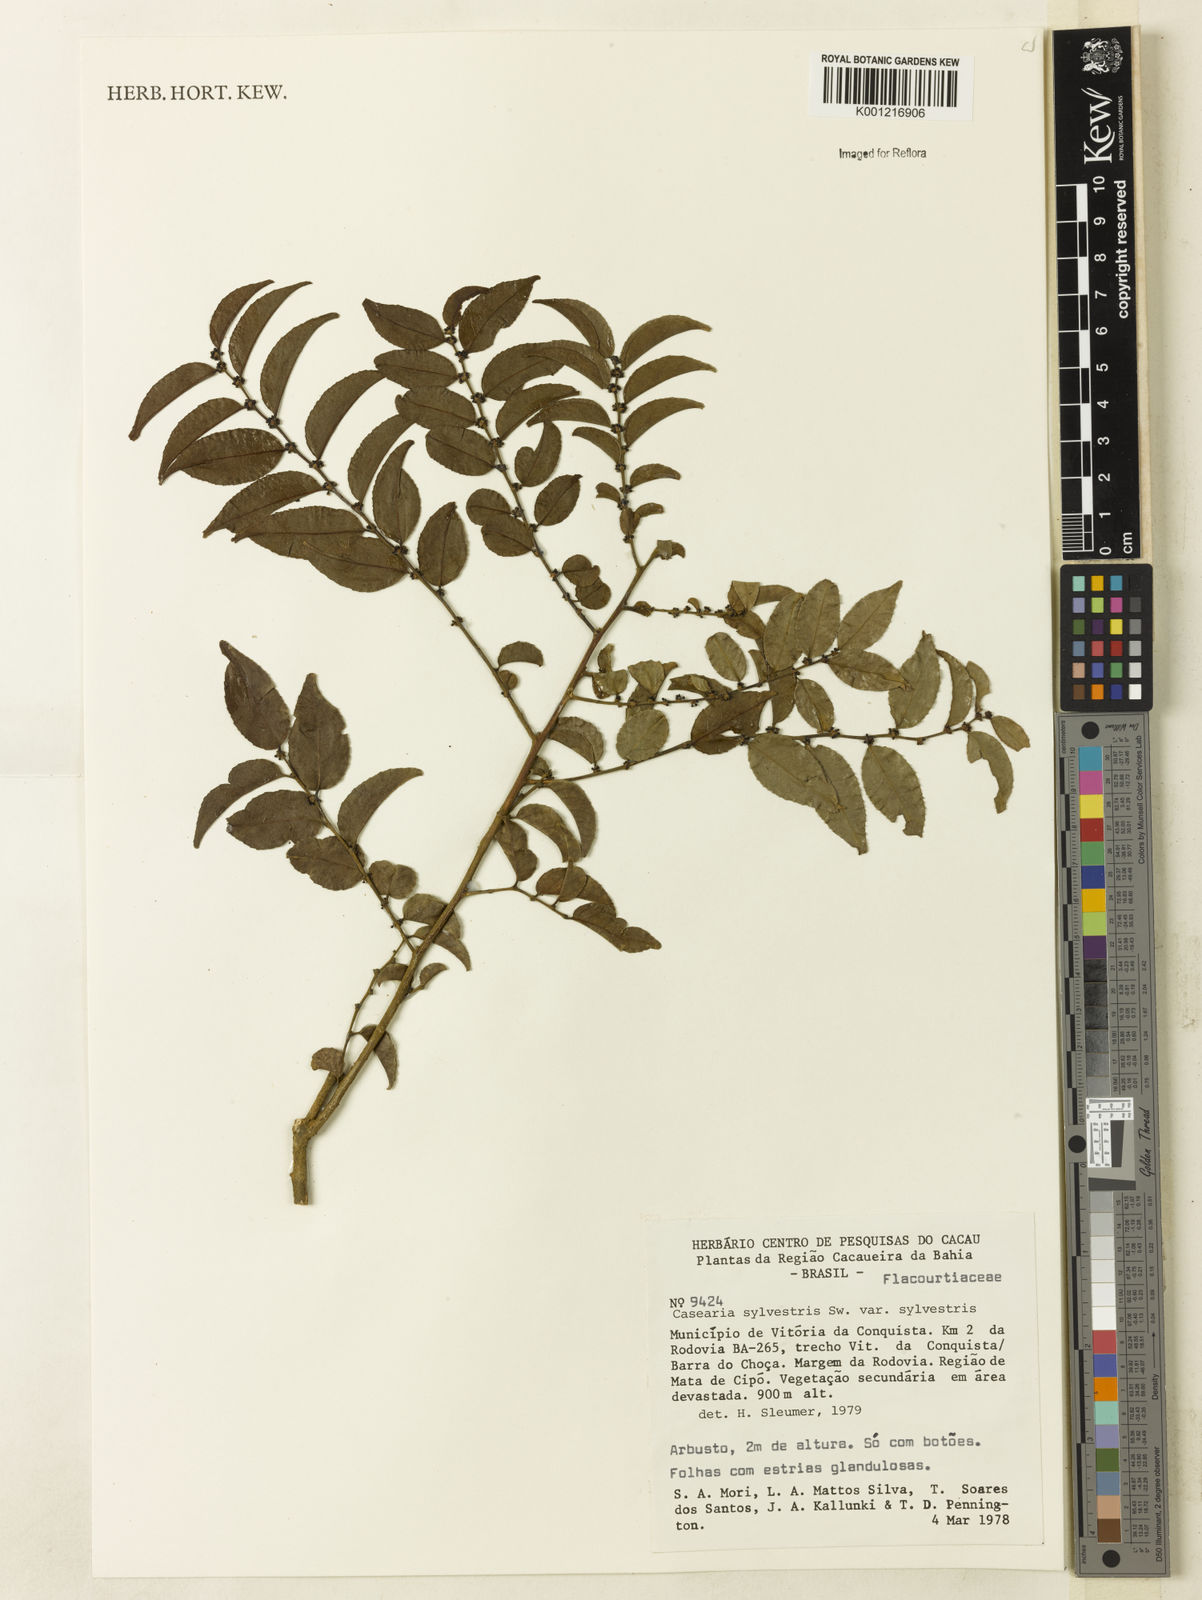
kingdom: Plantae
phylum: Tracheophyta
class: Magnoliopsida
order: Malpighiales
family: Salicaceae
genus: Casearia
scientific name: Casearia sylvestris
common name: Wild sage
